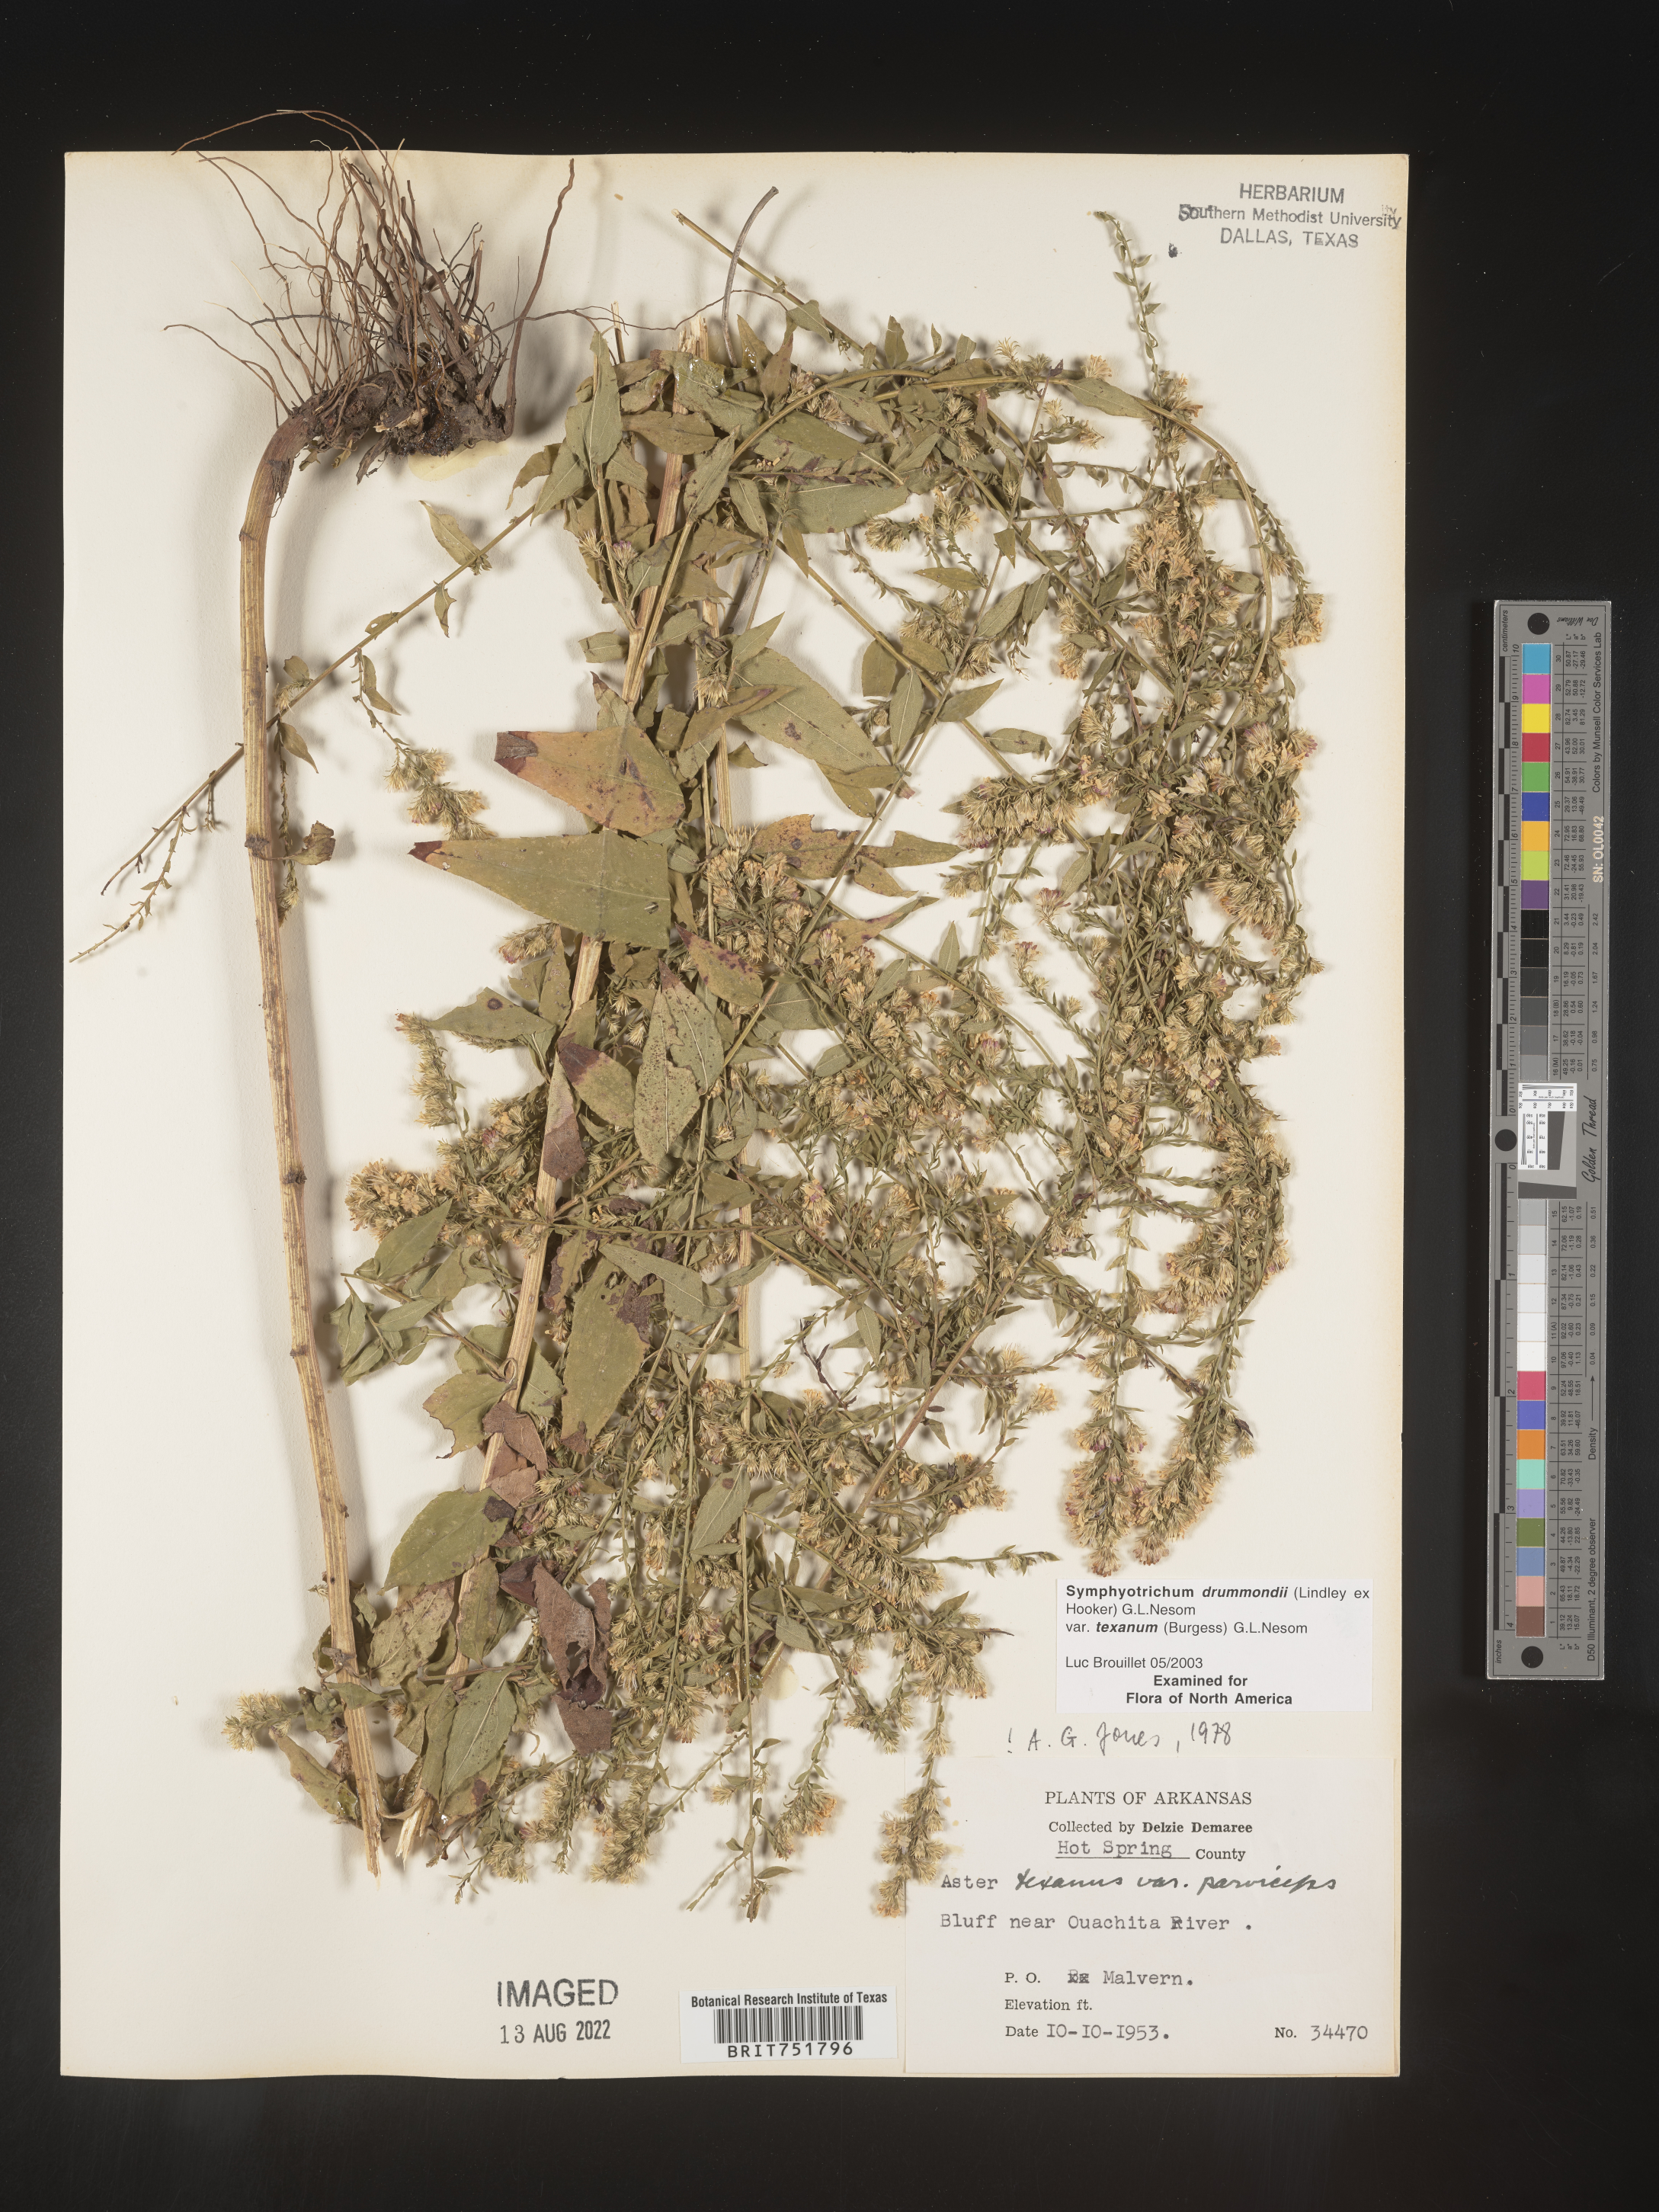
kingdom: Plantae
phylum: Tracheophyta
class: Magnoliopsida
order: Asterales
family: Asteraceae
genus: Symphyotrichum
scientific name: Symphyotrichum drummondii
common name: Drummond's aster
